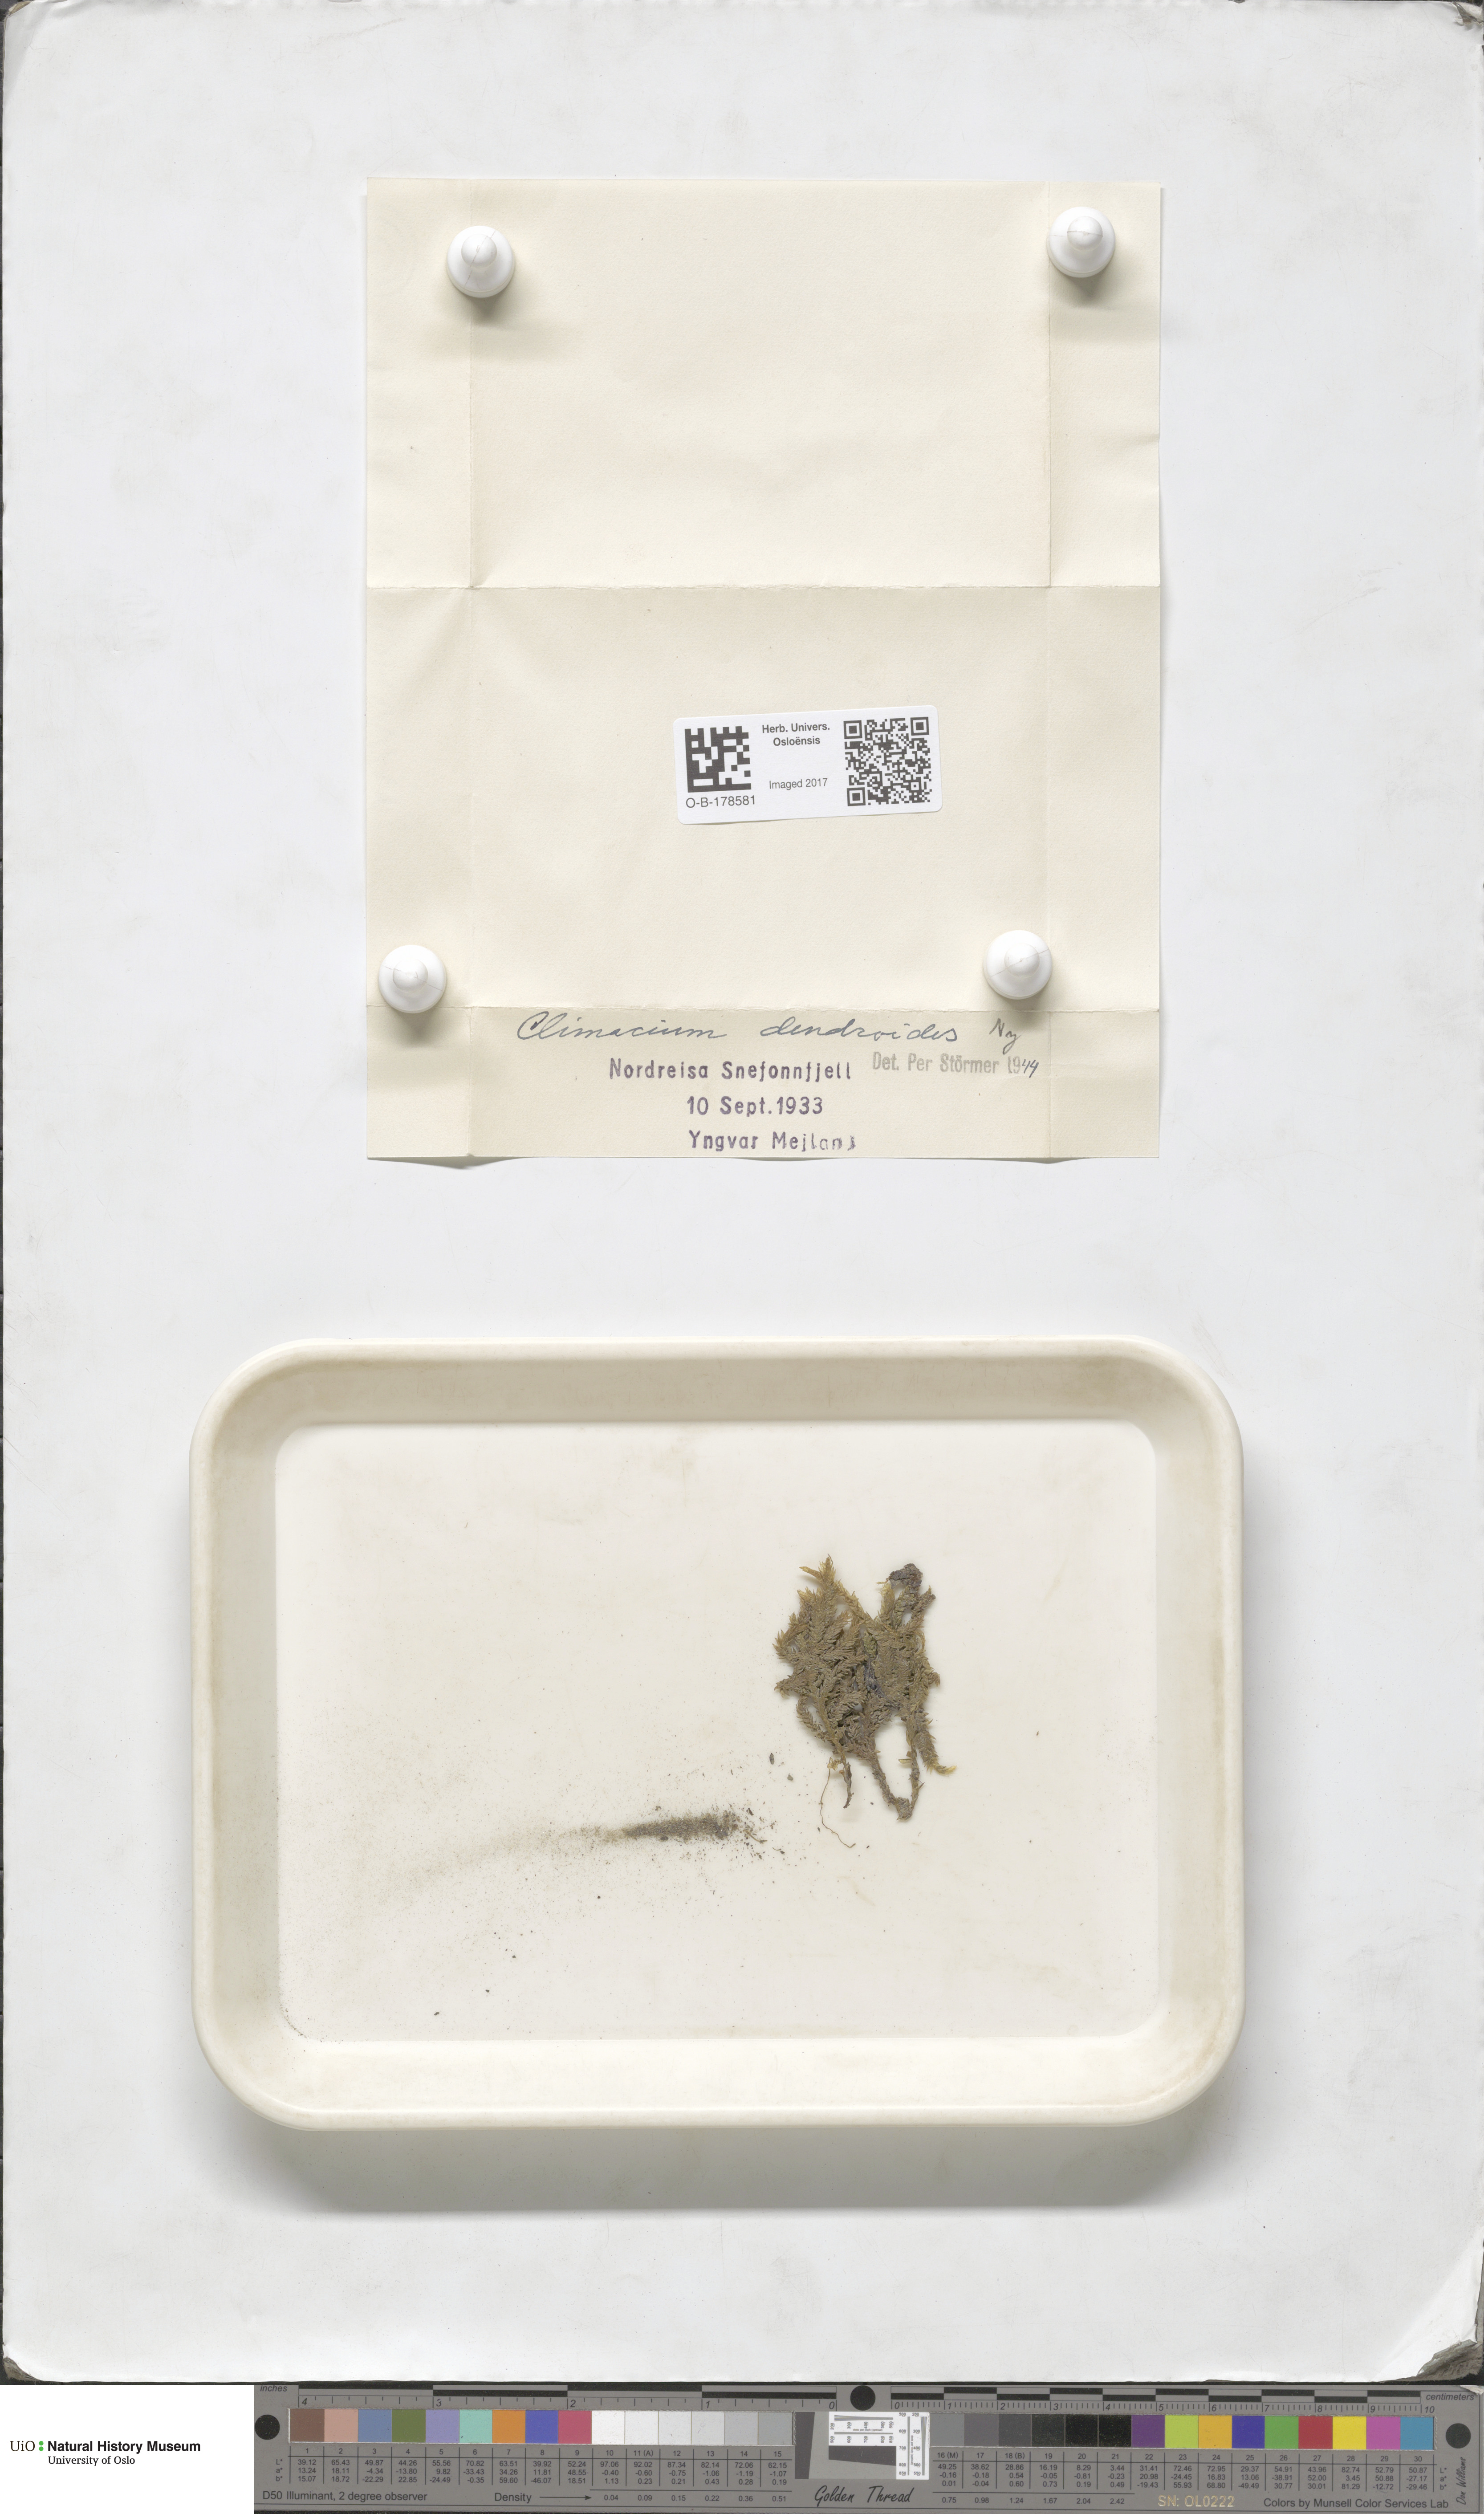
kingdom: Plantae
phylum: Bryophyta
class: Bryopsida
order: Hypnales
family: Climaciaceae
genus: Climacium
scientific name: Climacium dendroides
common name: Northern tree moss
